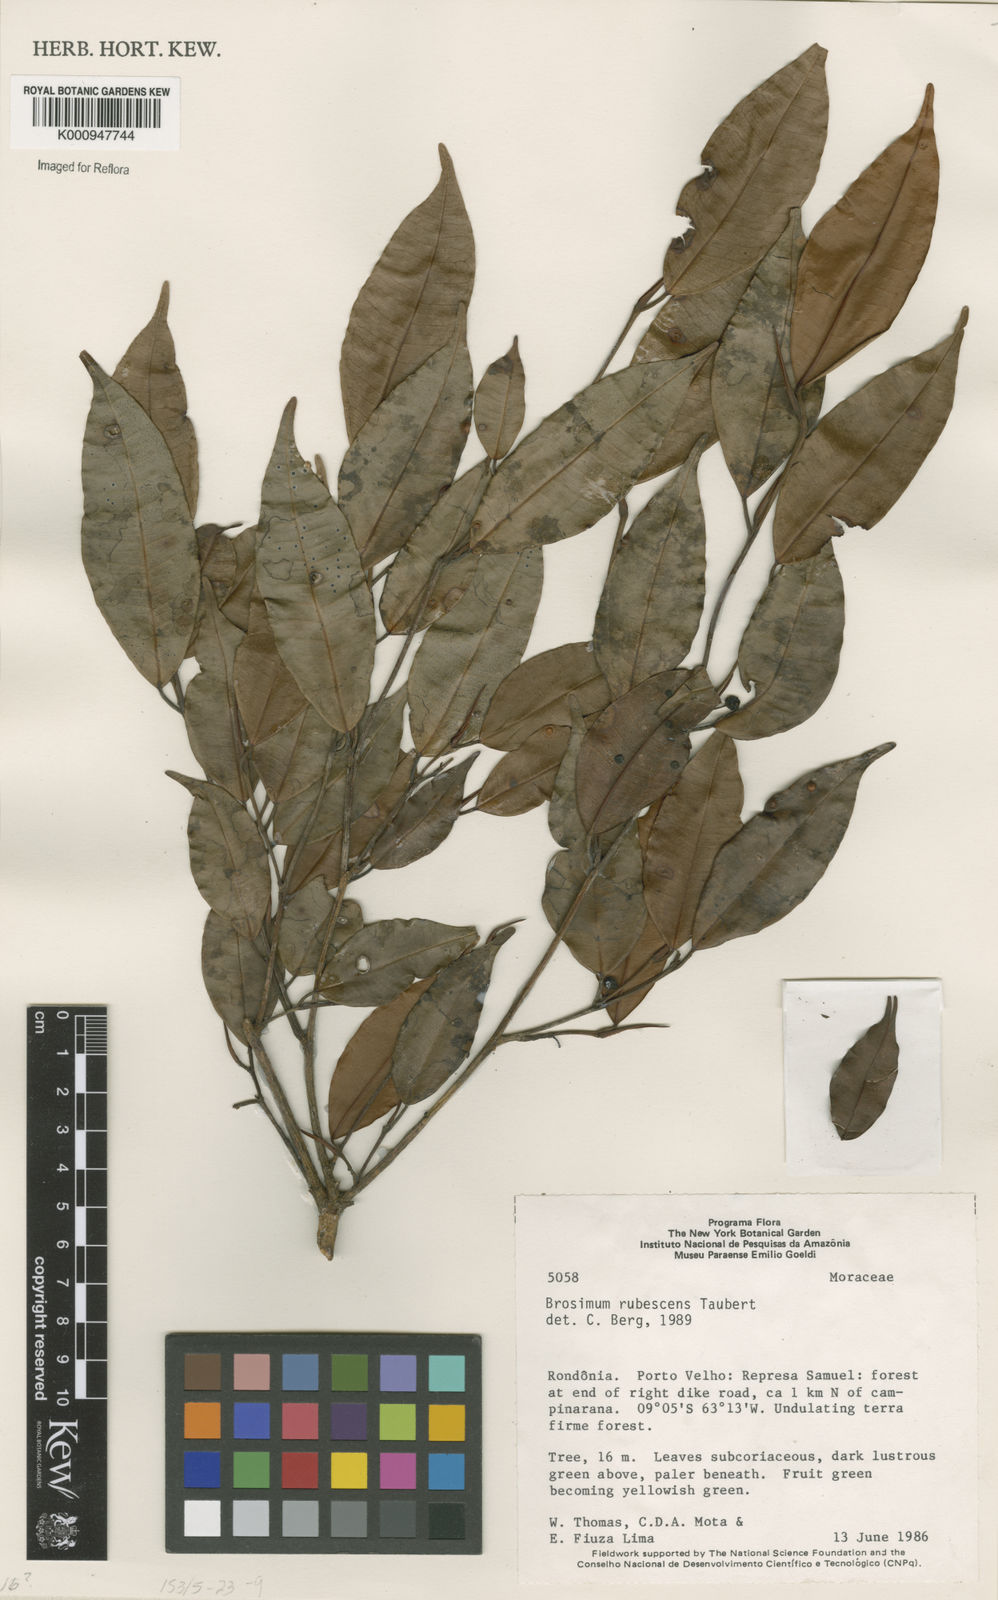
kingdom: Plantae
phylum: Tracheophyta
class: Magnoliopsida
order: Rosales
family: Moraceae
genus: Brosimum
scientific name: Brosimum rubescens
